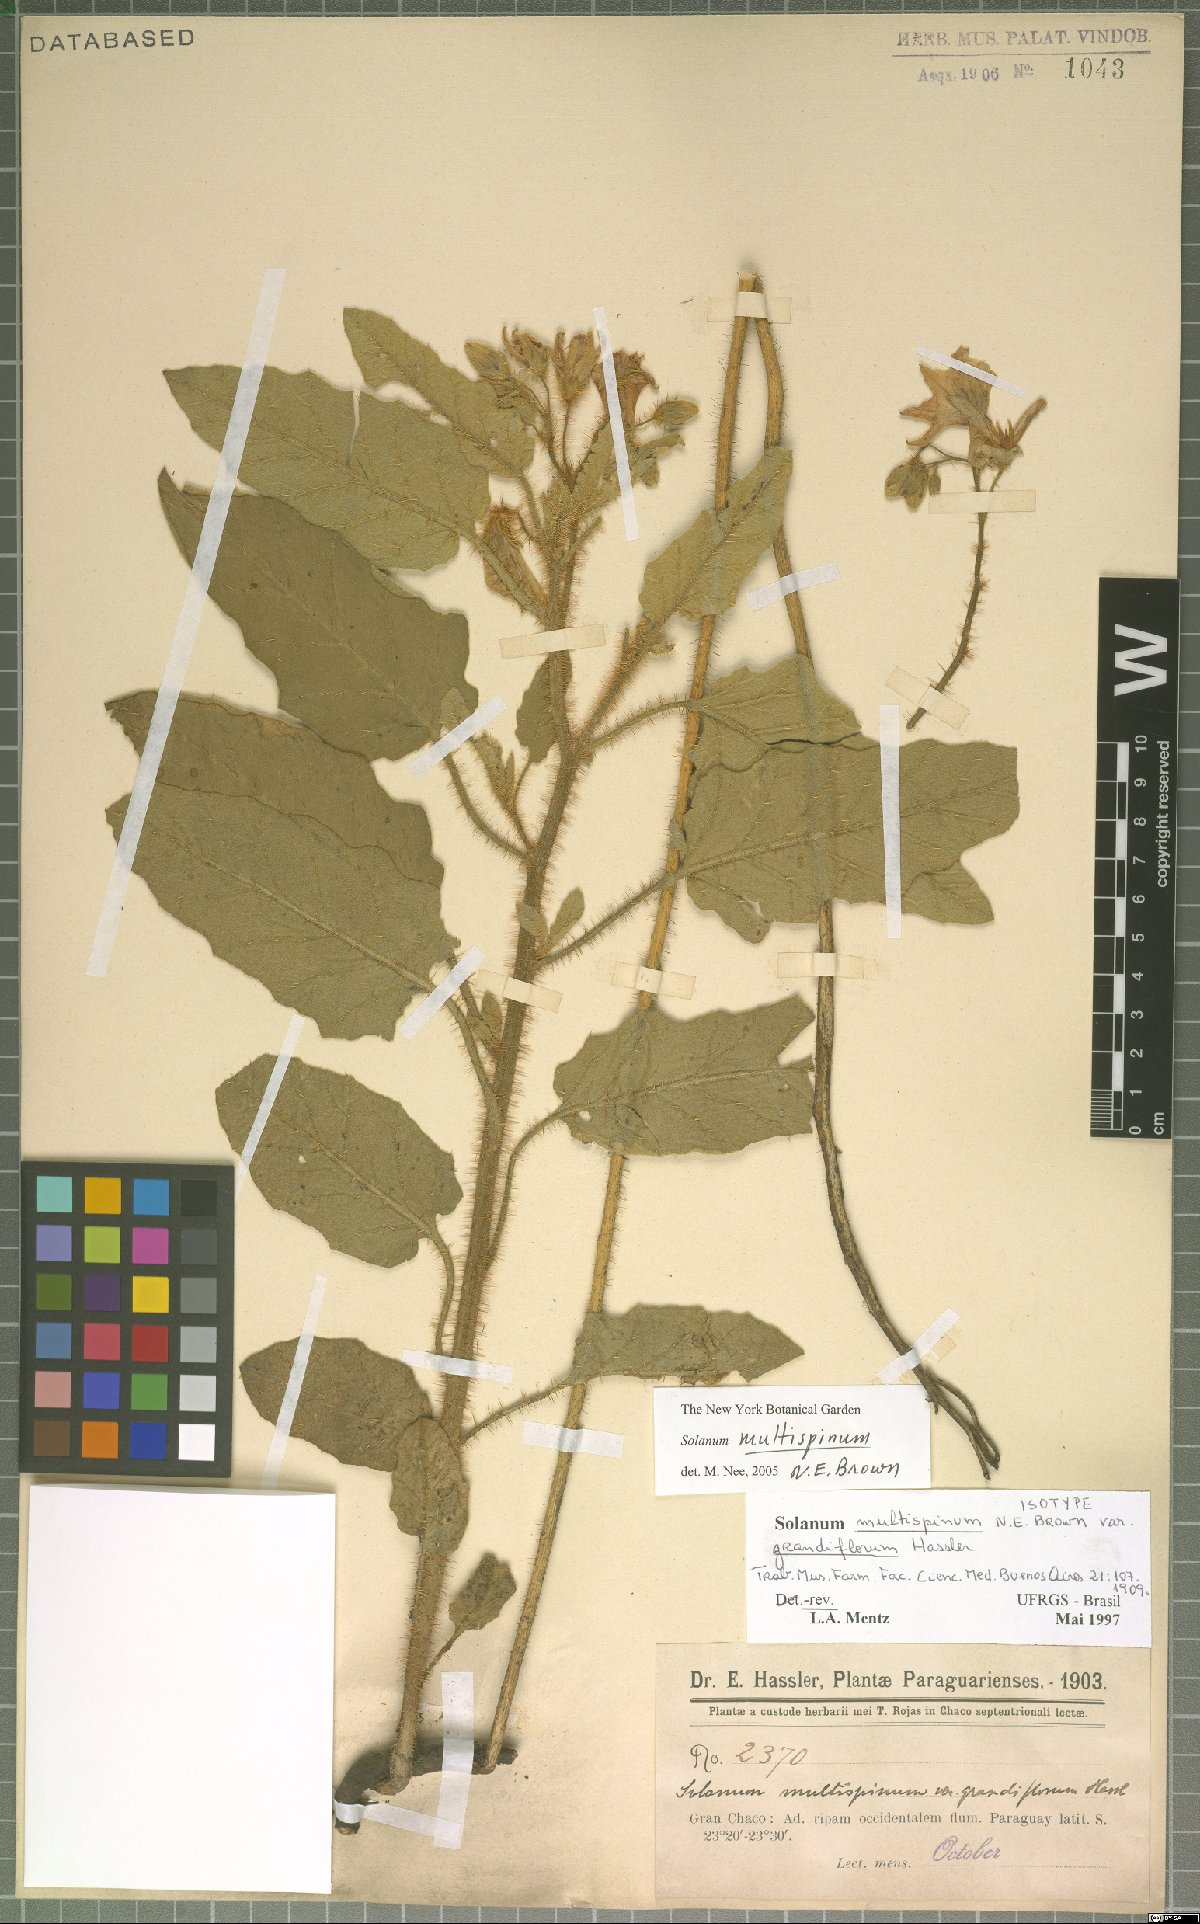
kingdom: Plantae
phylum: Tracheophyta
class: Magnoliopsida
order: Solanales
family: Solanaceae
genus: Solanum
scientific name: Solanum multispinum
